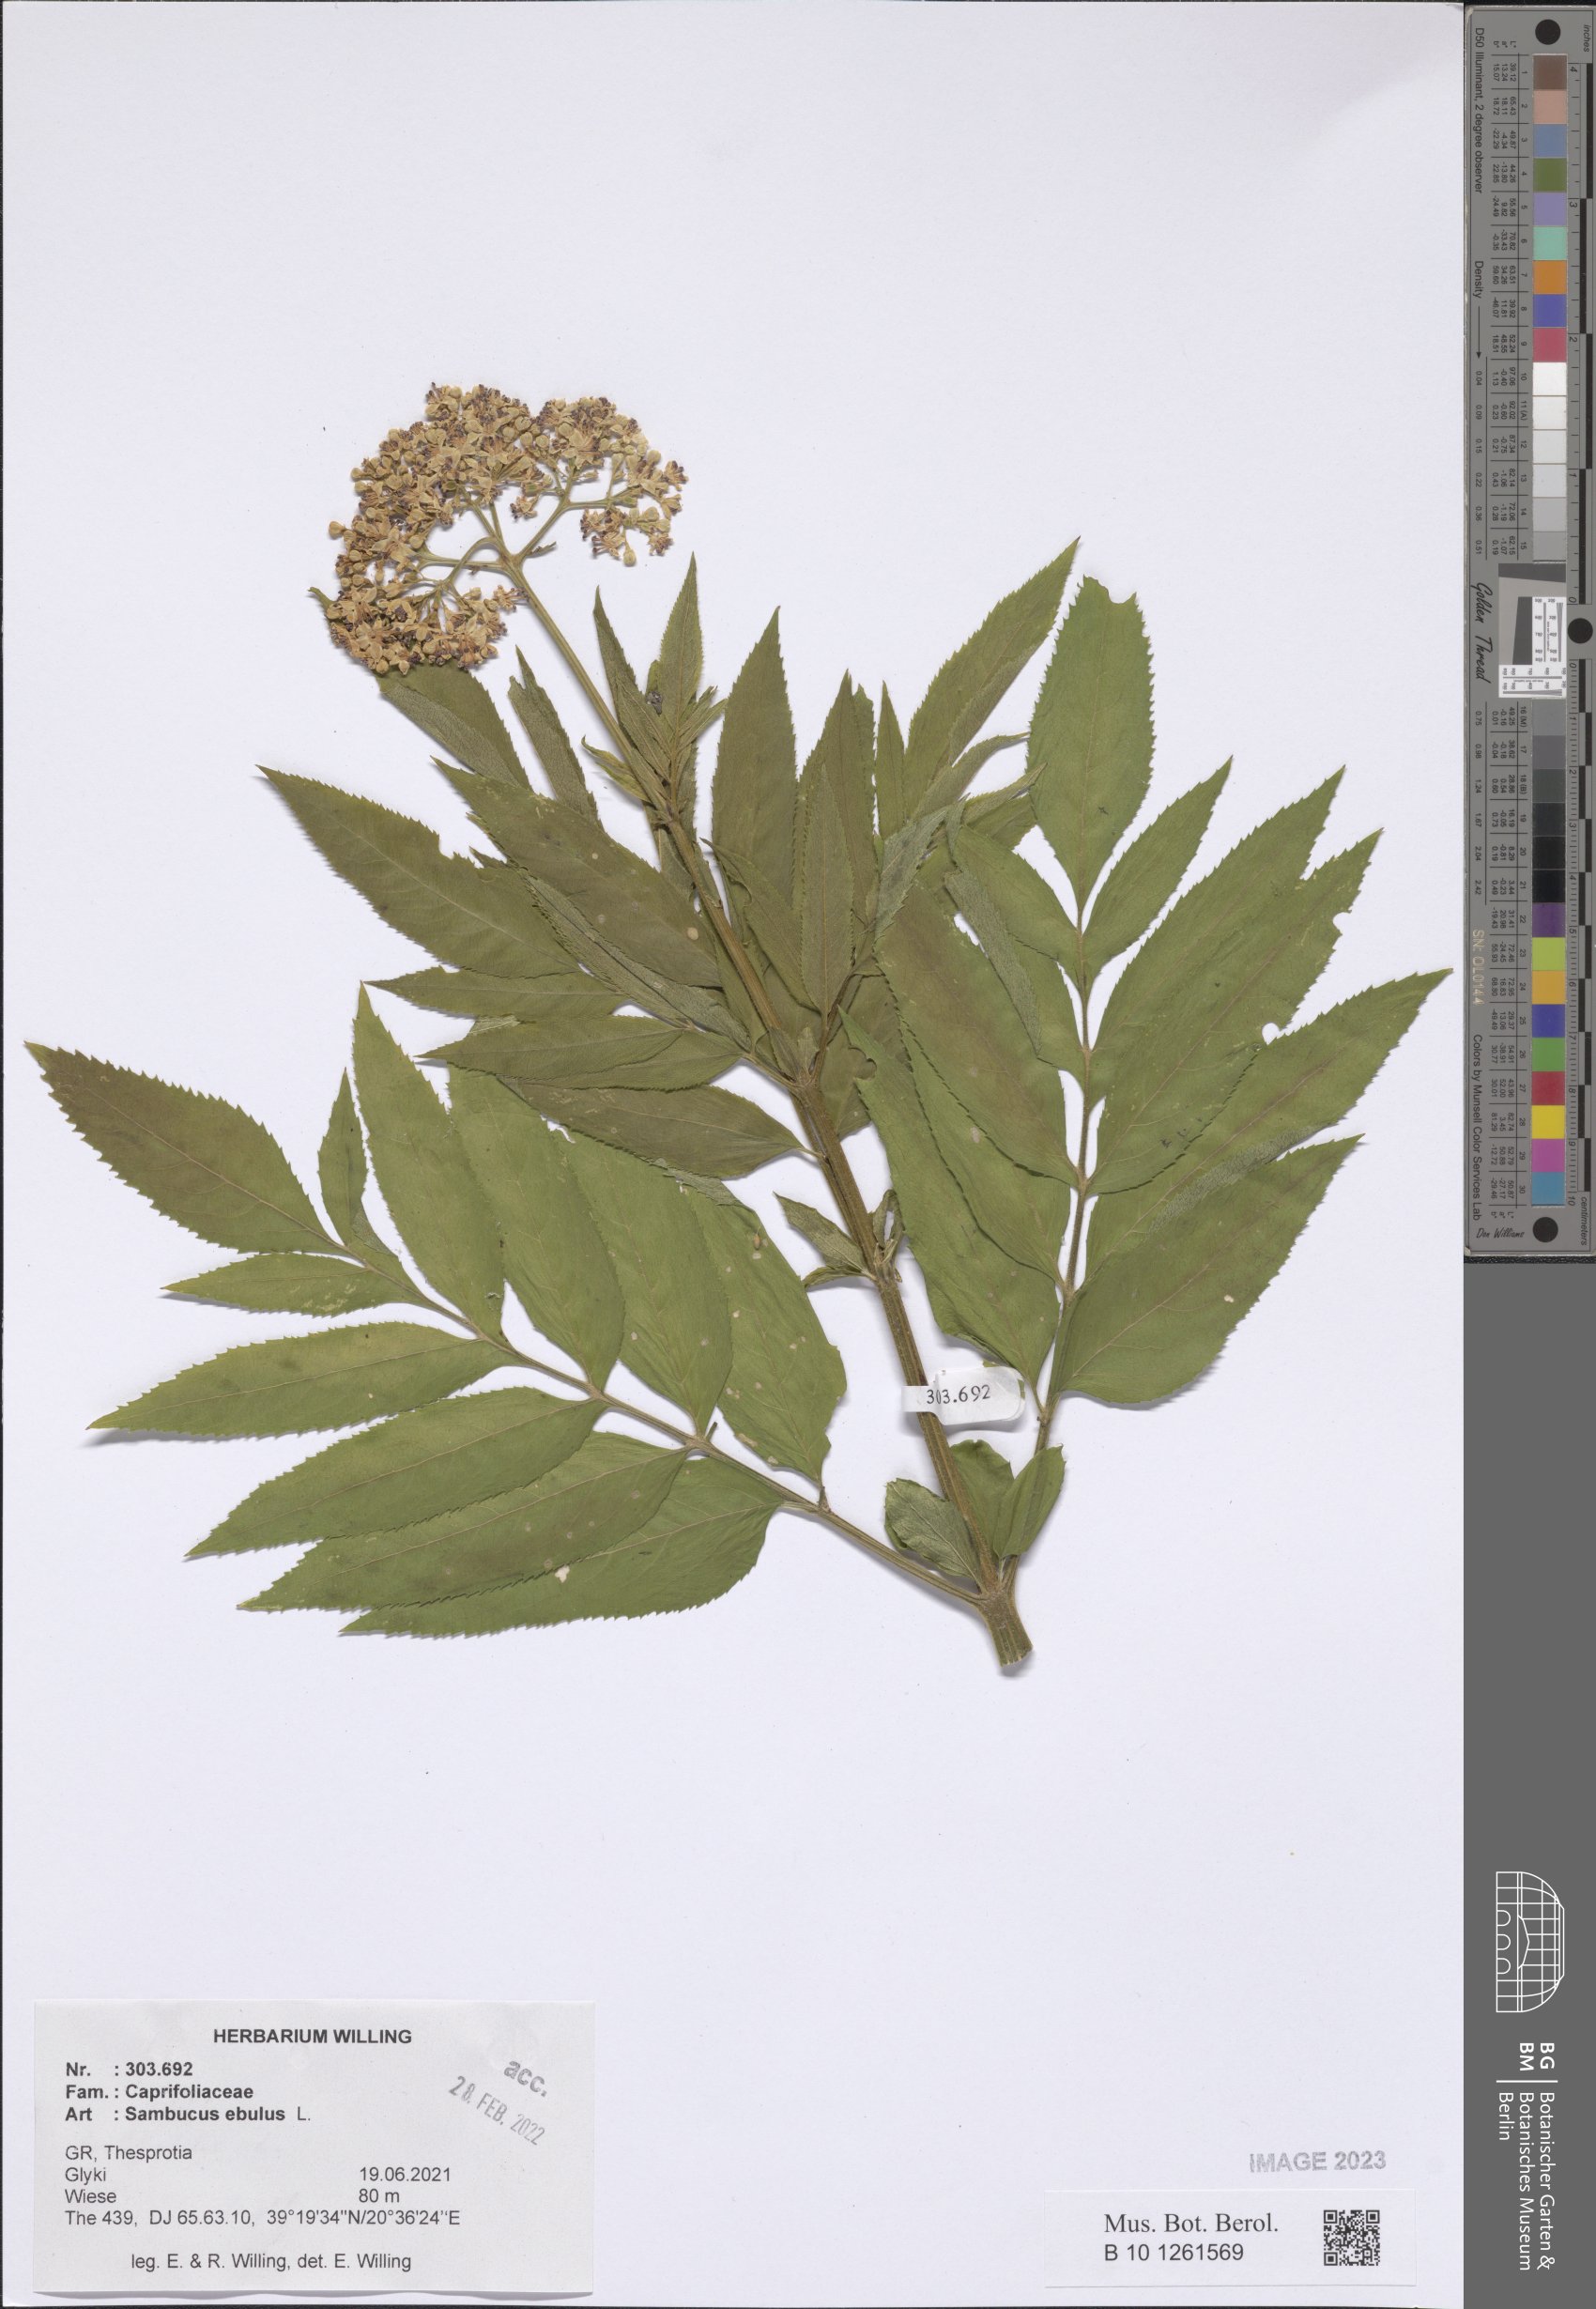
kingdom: Plantae
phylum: Tracheophyta
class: Magnoliopsida
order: Dipsacales
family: Viburnaceae
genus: Sambucus
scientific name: Sambucus ebulus
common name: Dwarf elder
